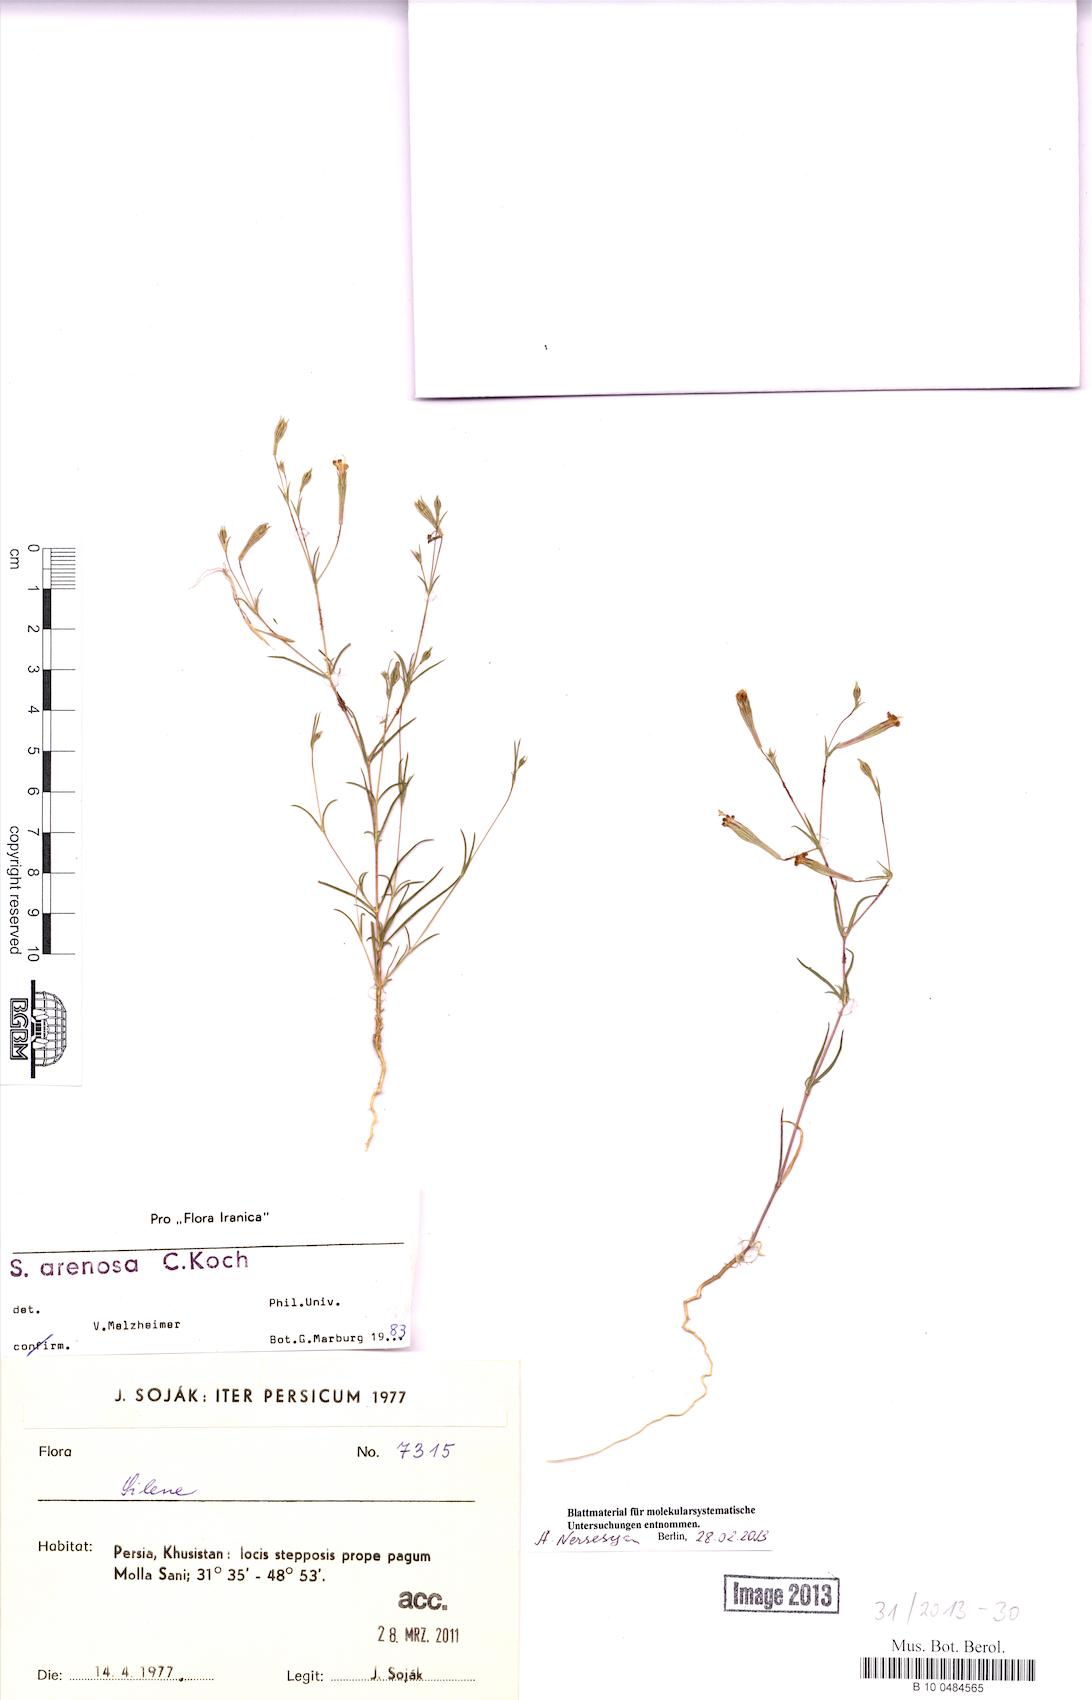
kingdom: Plantae
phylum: Tracheophyta
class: Magnoliopsida
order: Caryophyllales
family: Caryophyllaceae
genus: Silene
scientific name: Silene arenosa
